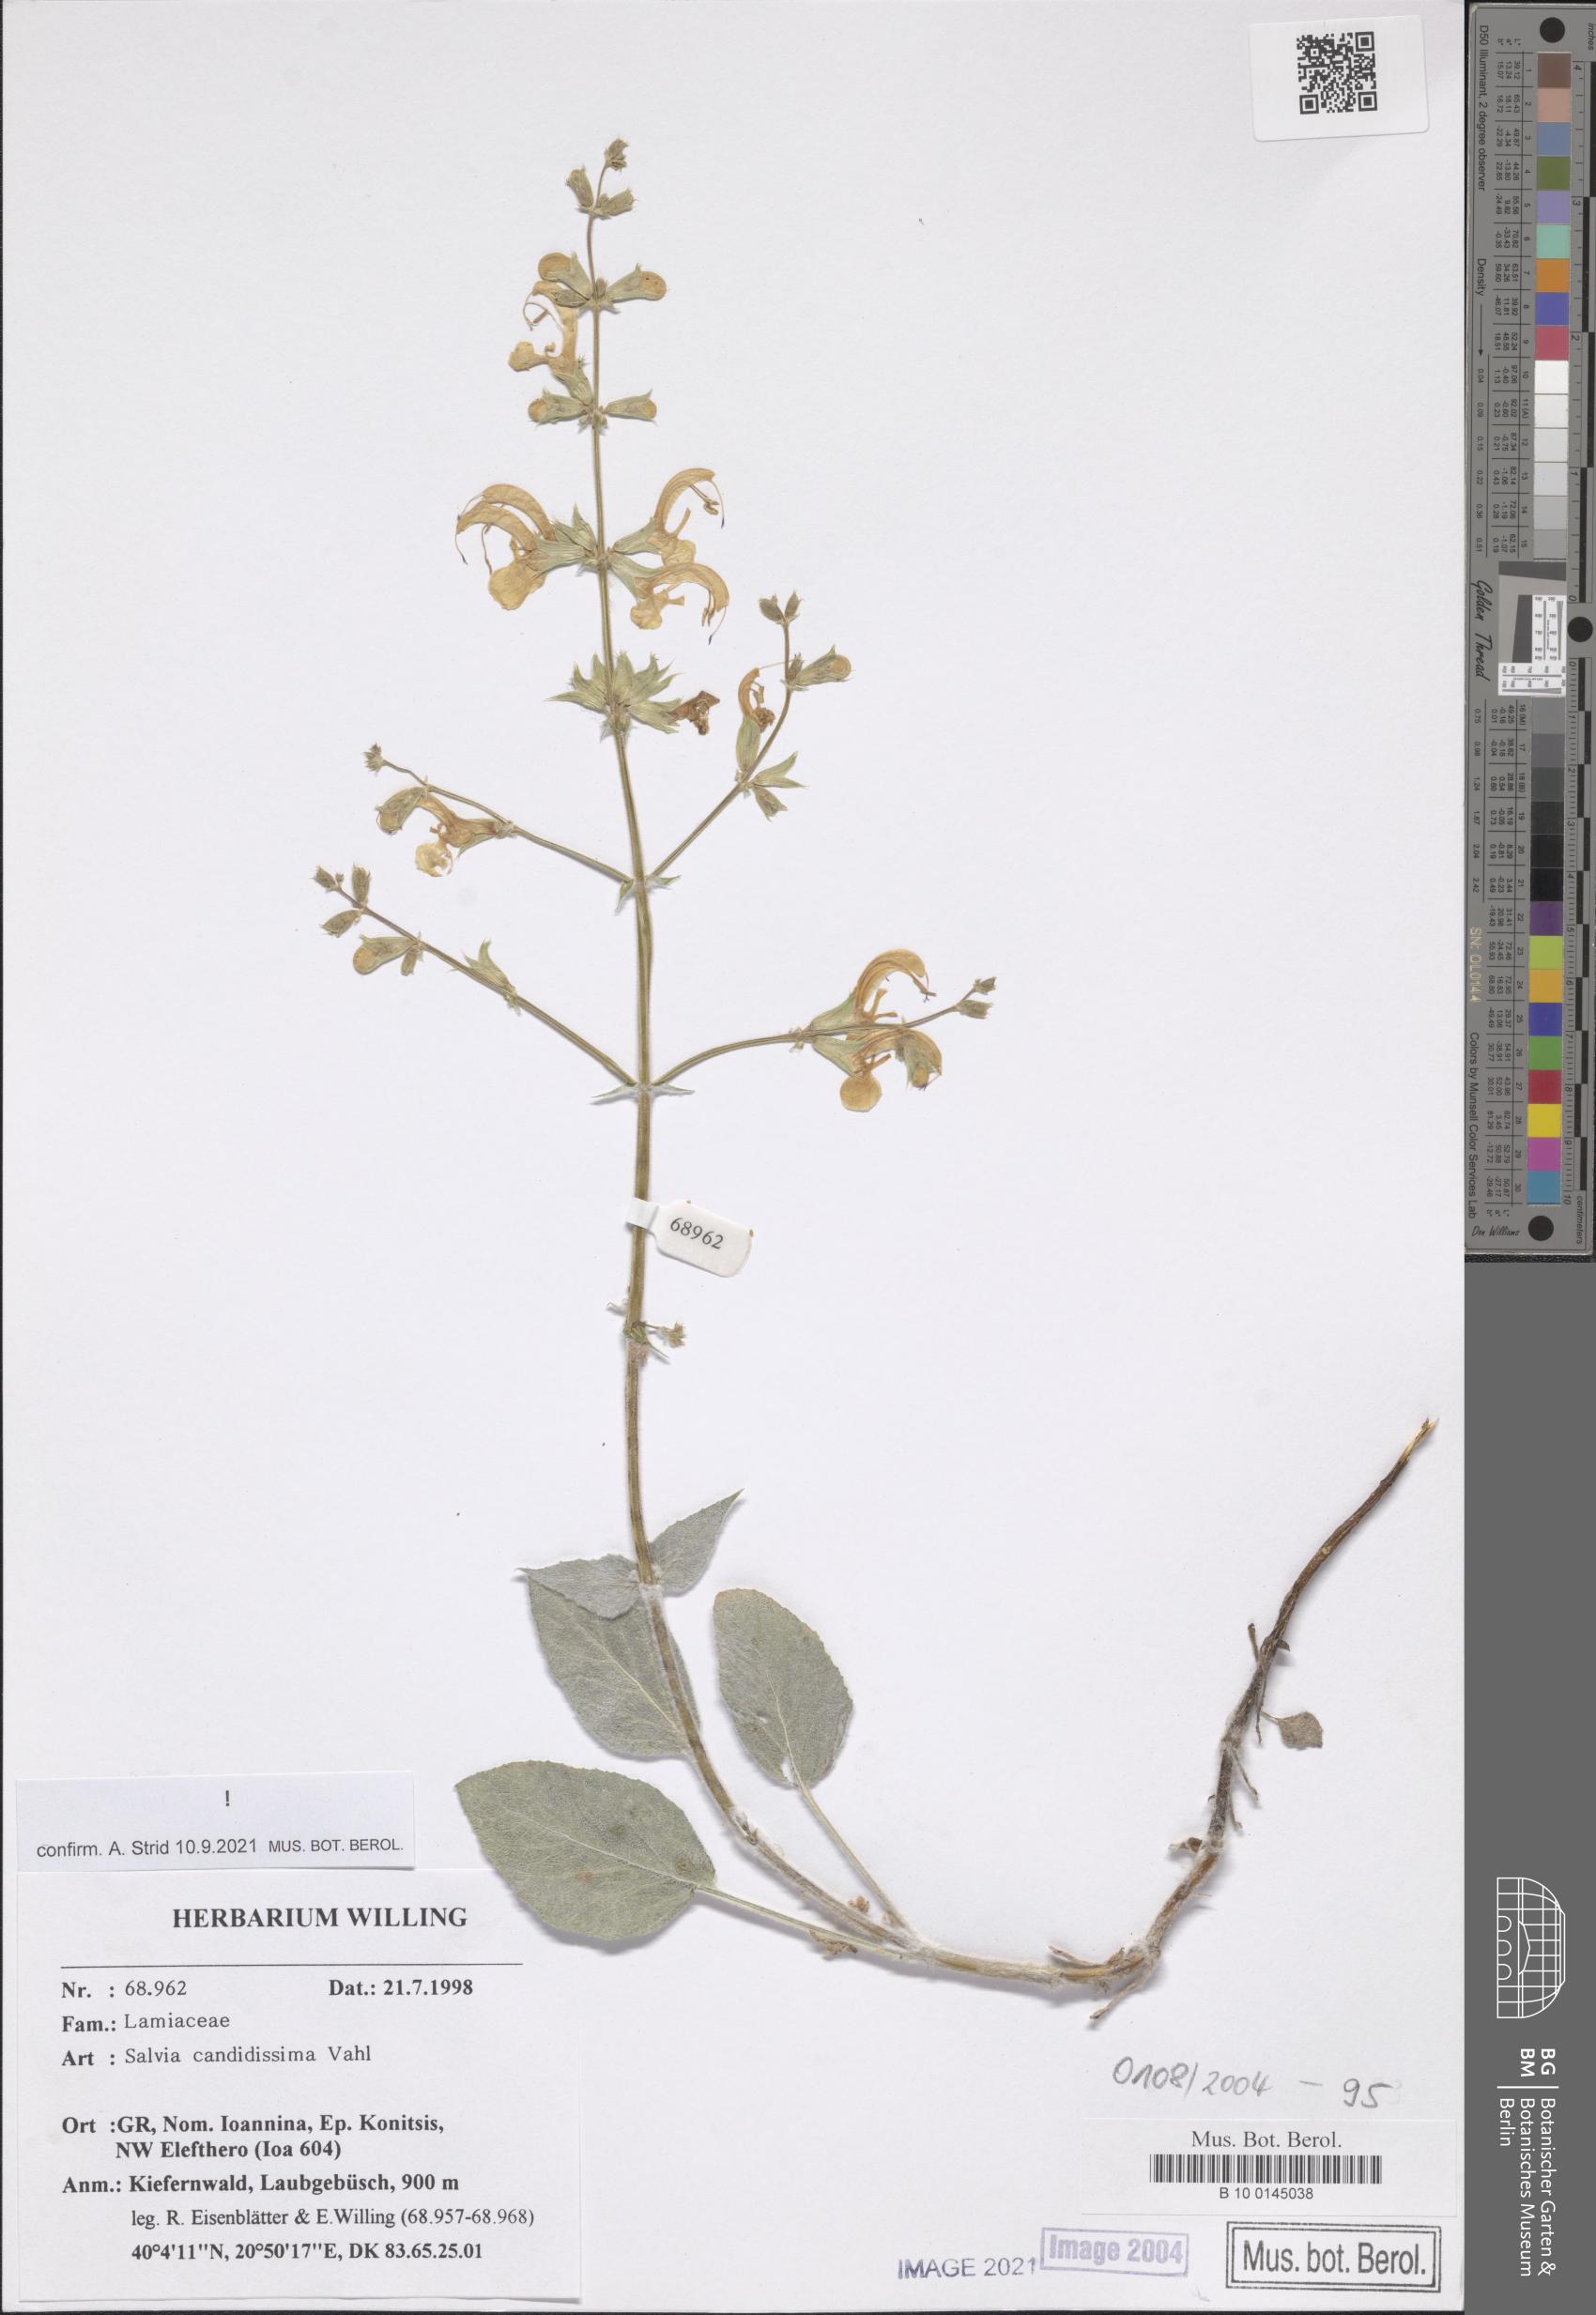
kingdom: Plantae
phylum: Tracheophyta
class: Magnoliopsida
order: Lamiales
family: Lamiaceae
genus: Salvia
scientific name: Salvia candidissima
